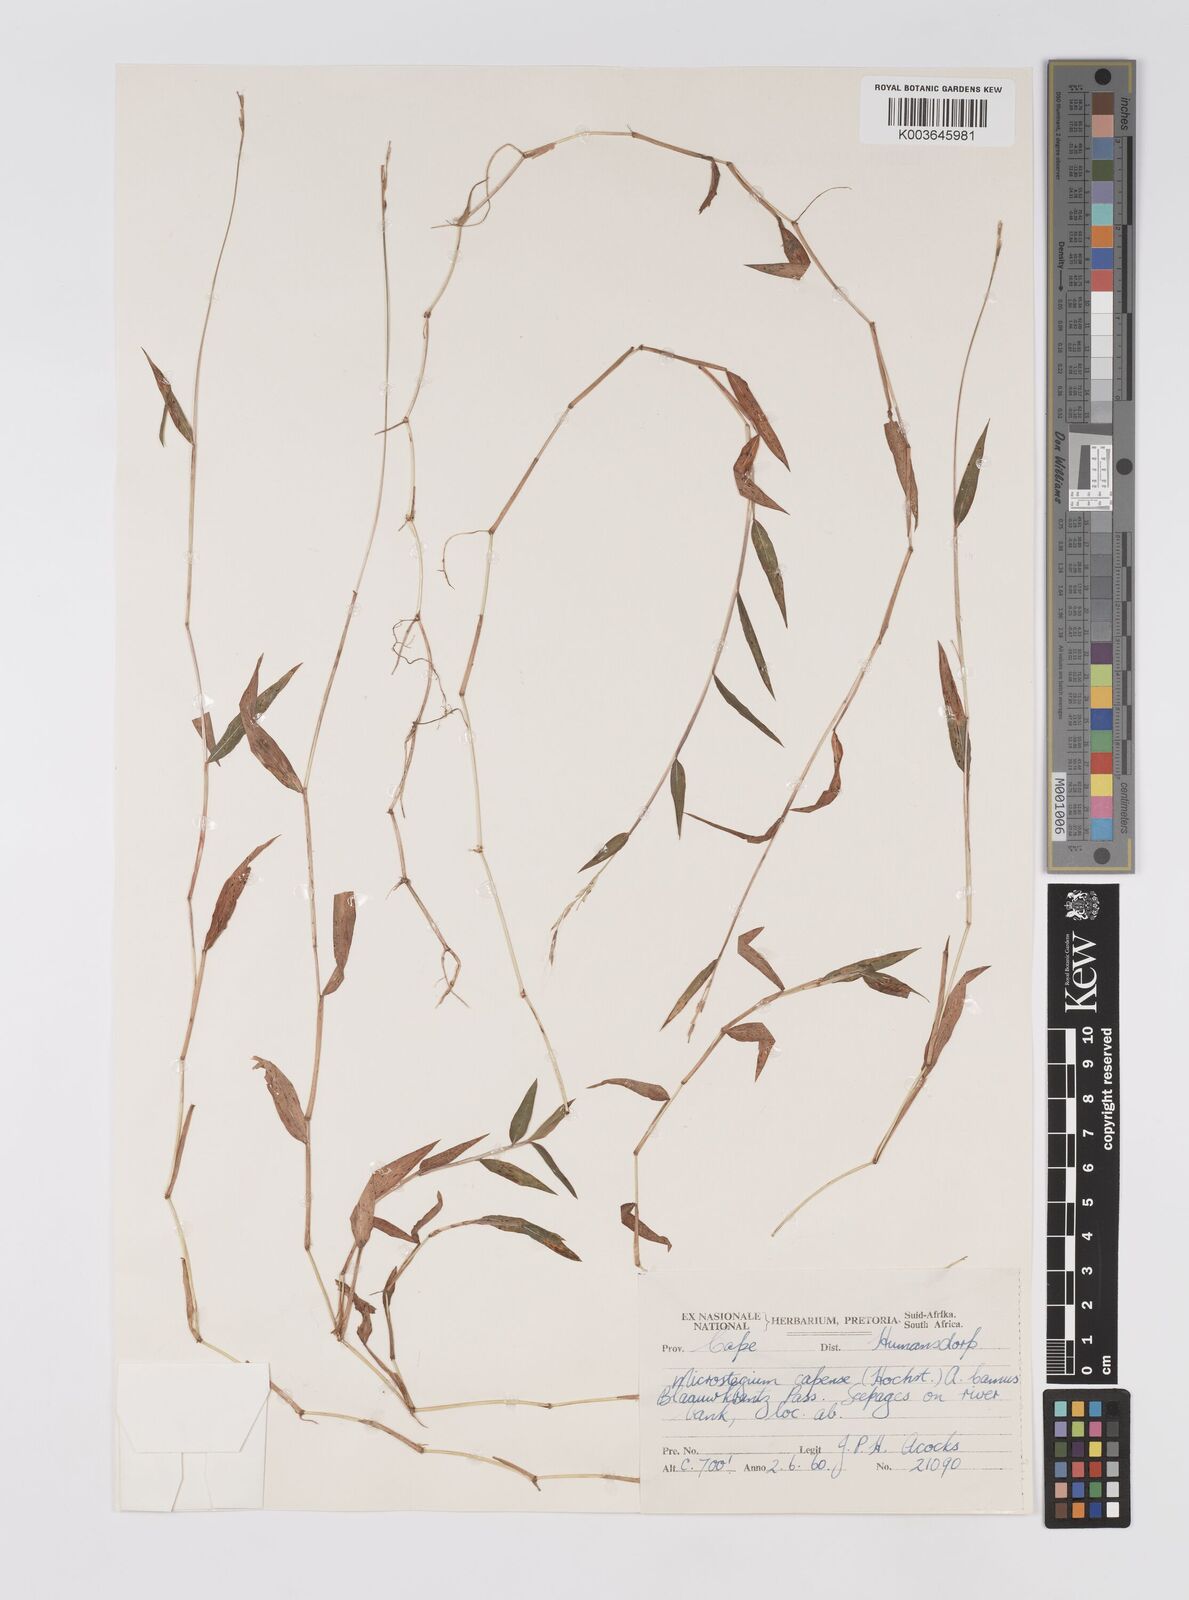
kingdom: Plantae
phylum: Tracheophyta
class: Liliopsida
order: Poales
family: Poaceae
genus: Microstegium
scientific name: Microstegium nudum
